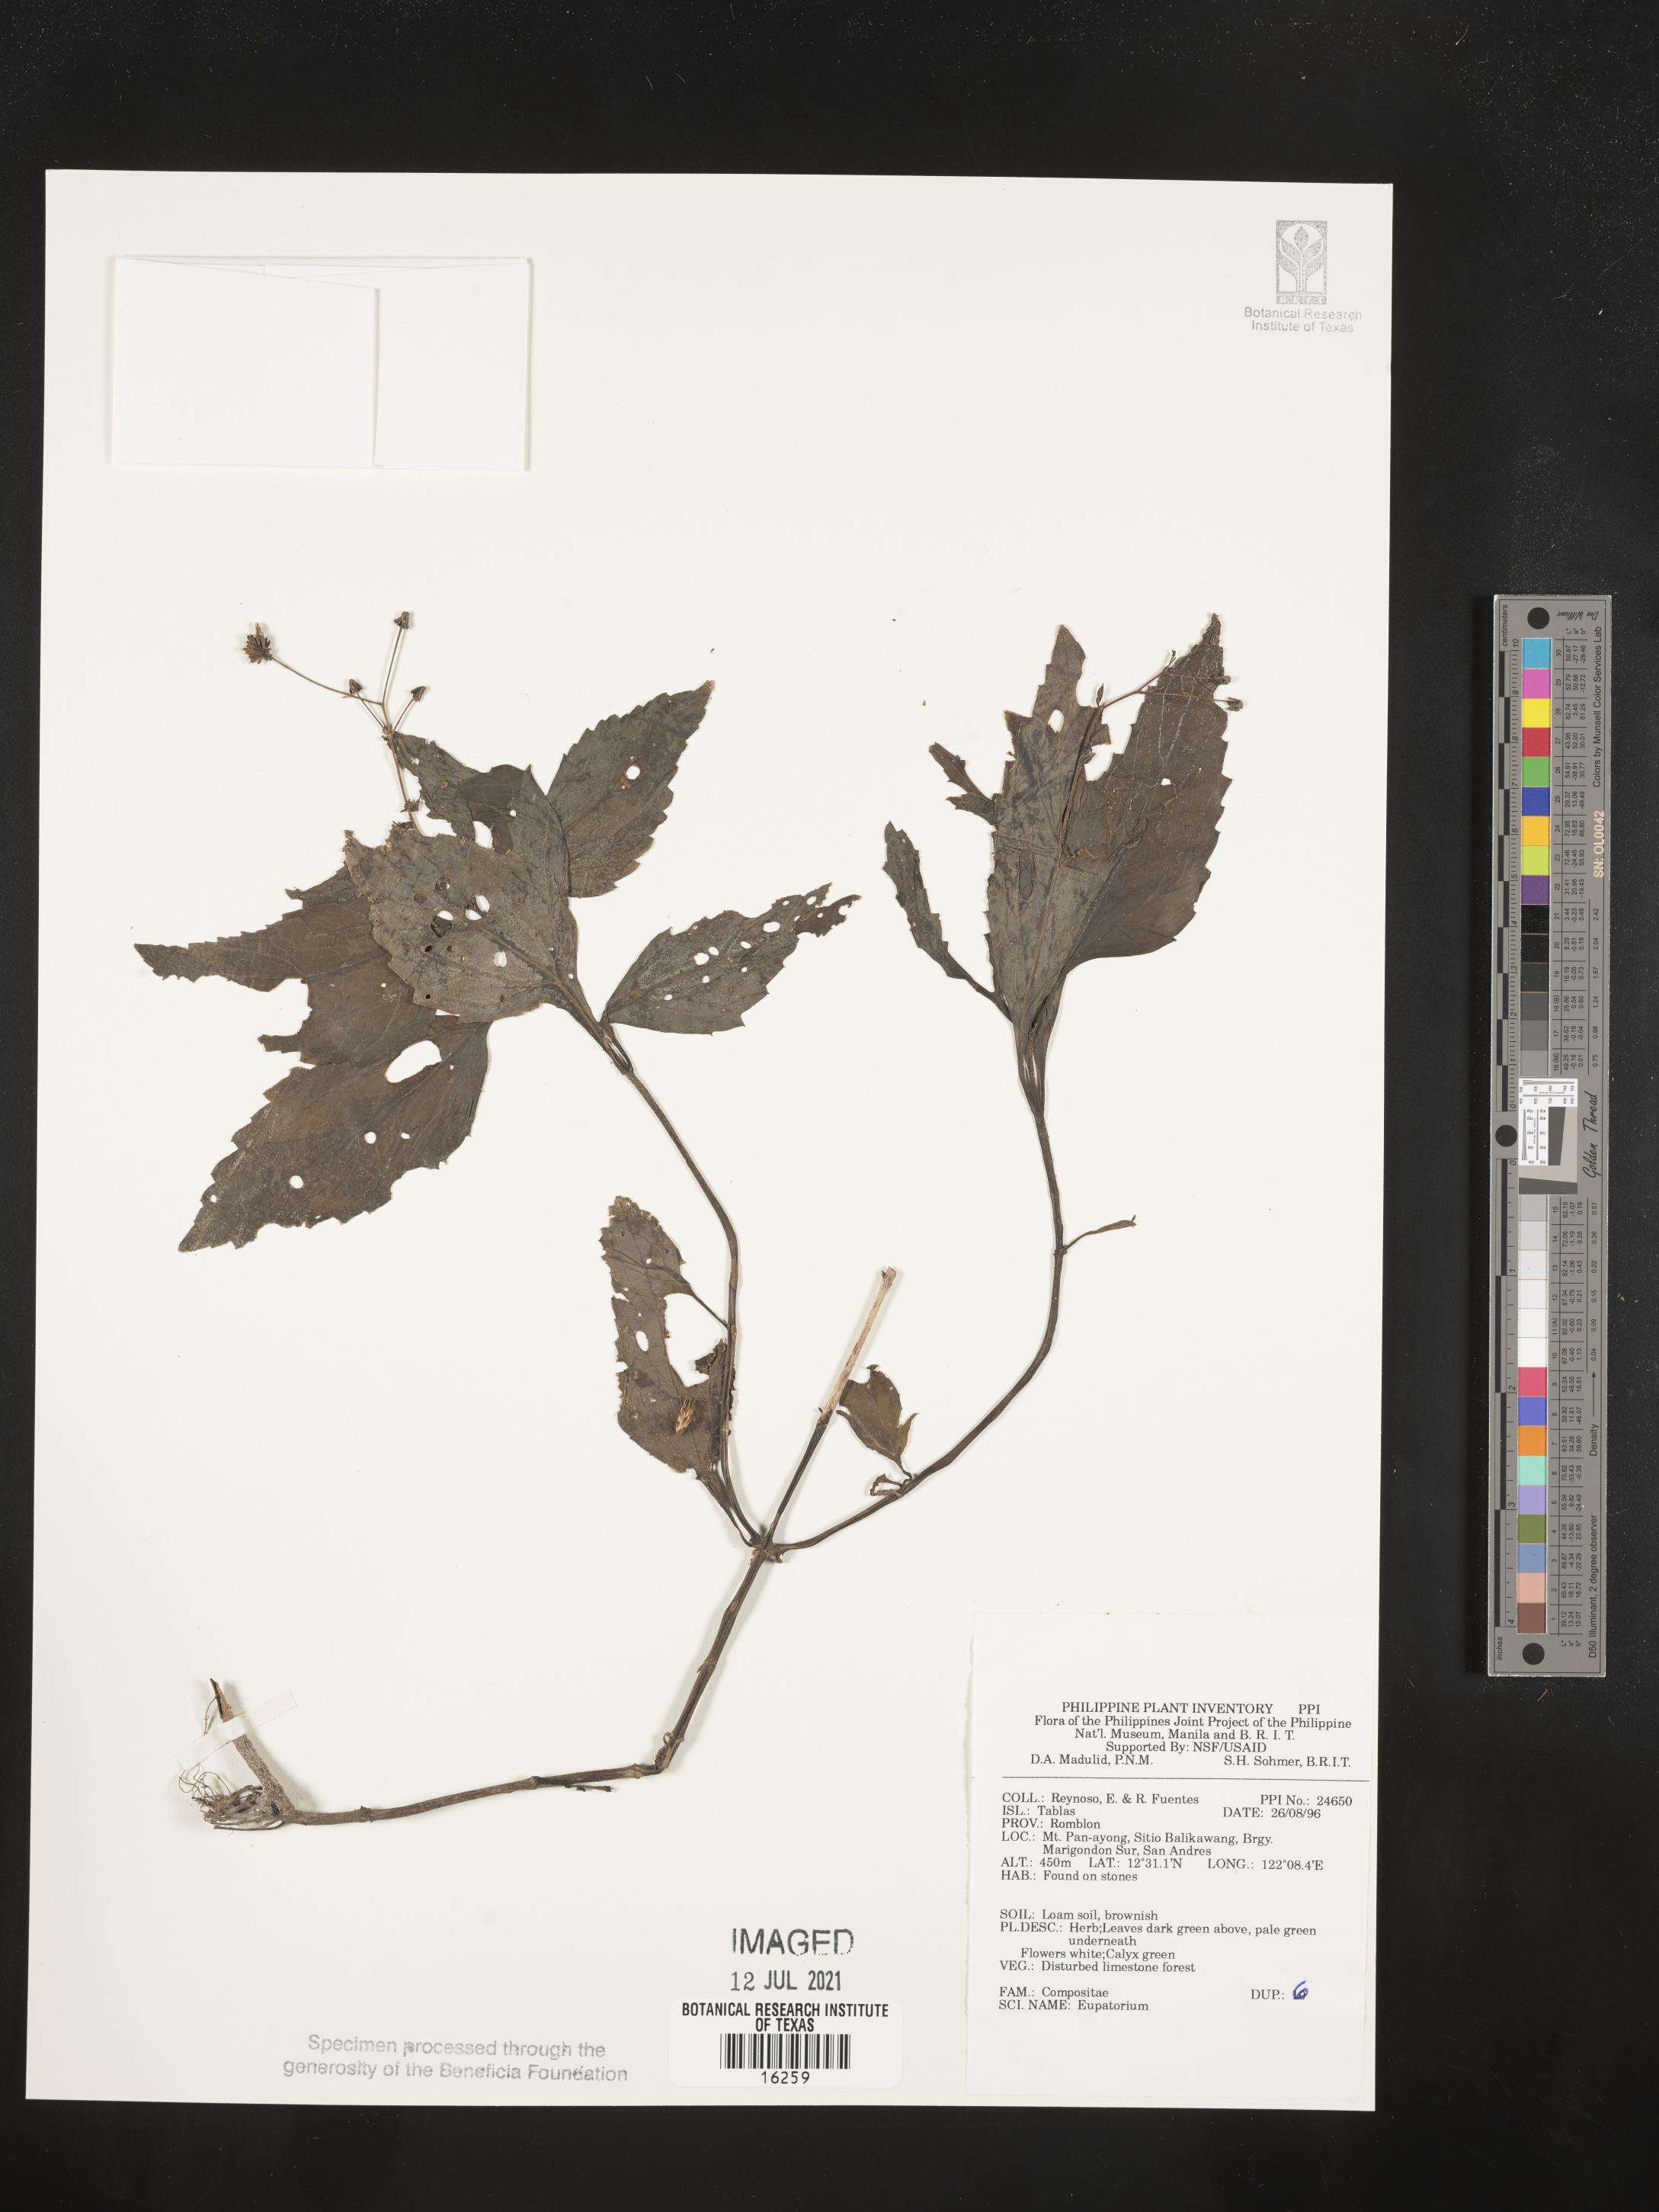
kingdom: Plantae
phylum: Tracheophyta
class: Magnoliopsida
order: Asterales
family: Asteraceae
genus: Eupatorium
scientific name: Eupatorium
